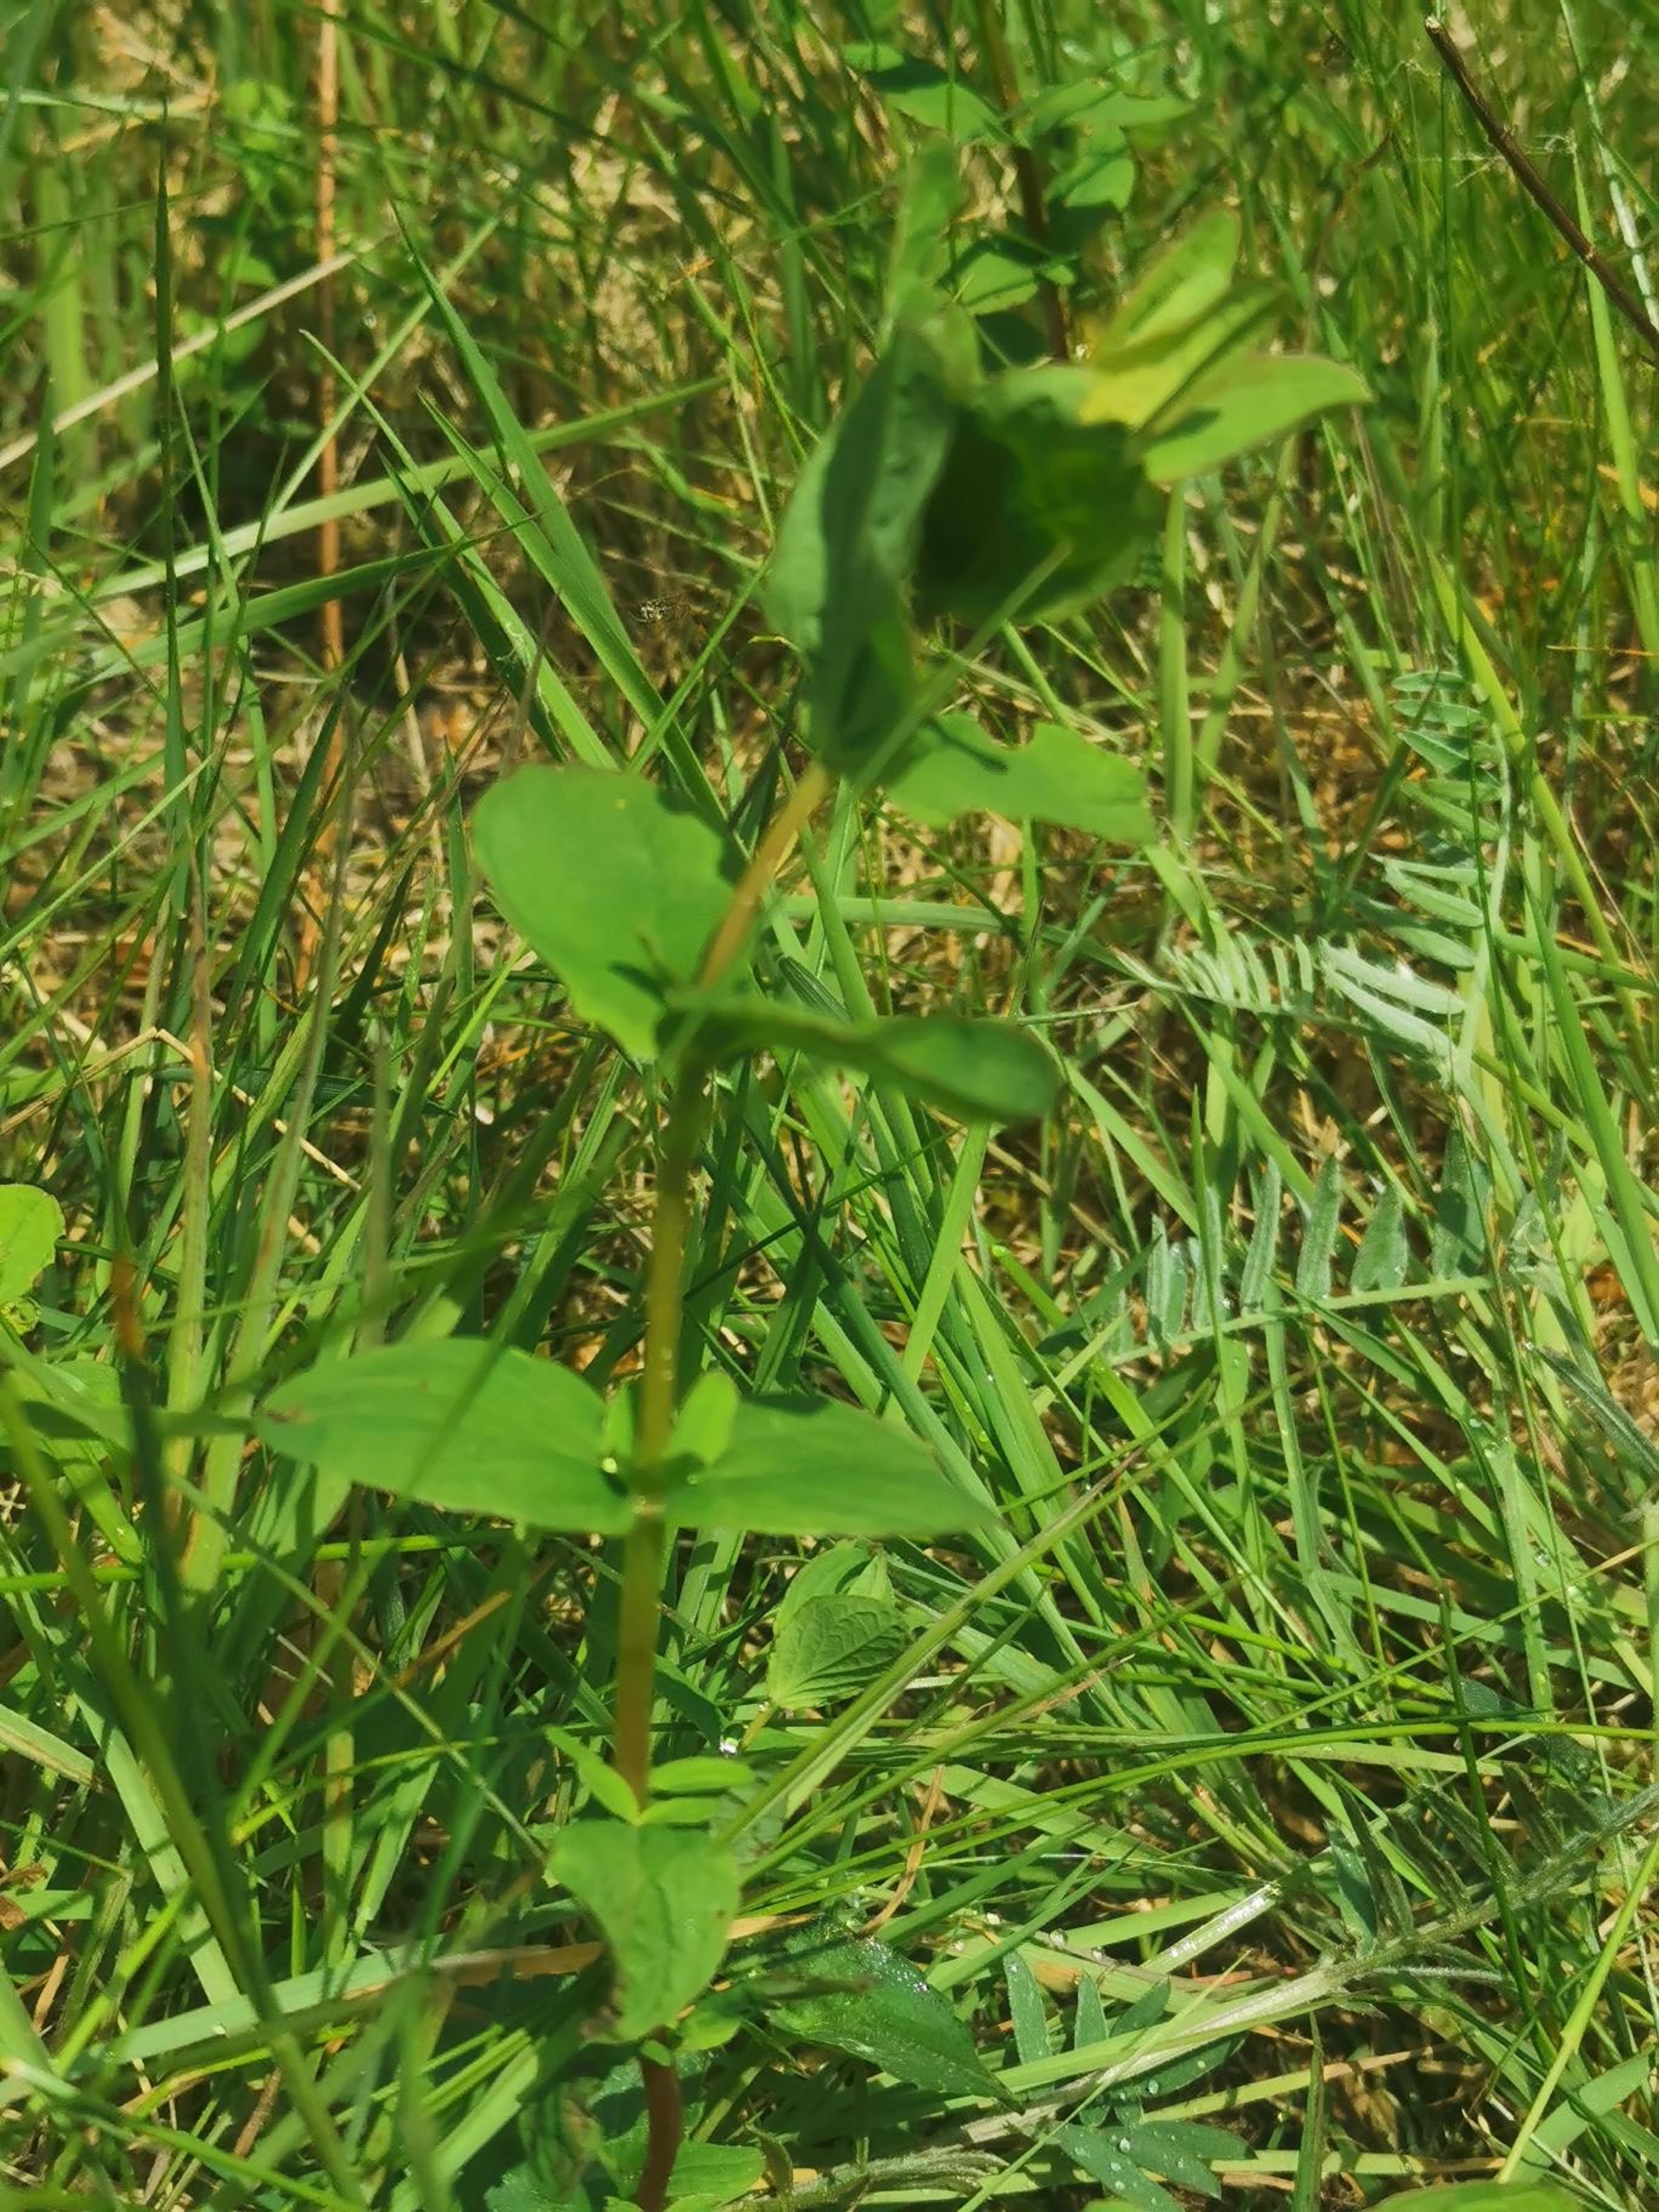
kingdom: Plantae
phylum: Tracheophyta
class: Magnoliopsida
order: Malpighiales
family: Hypericaceae
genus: Hypericum
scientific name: Hypericum maculatum
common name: Kantet perikon
